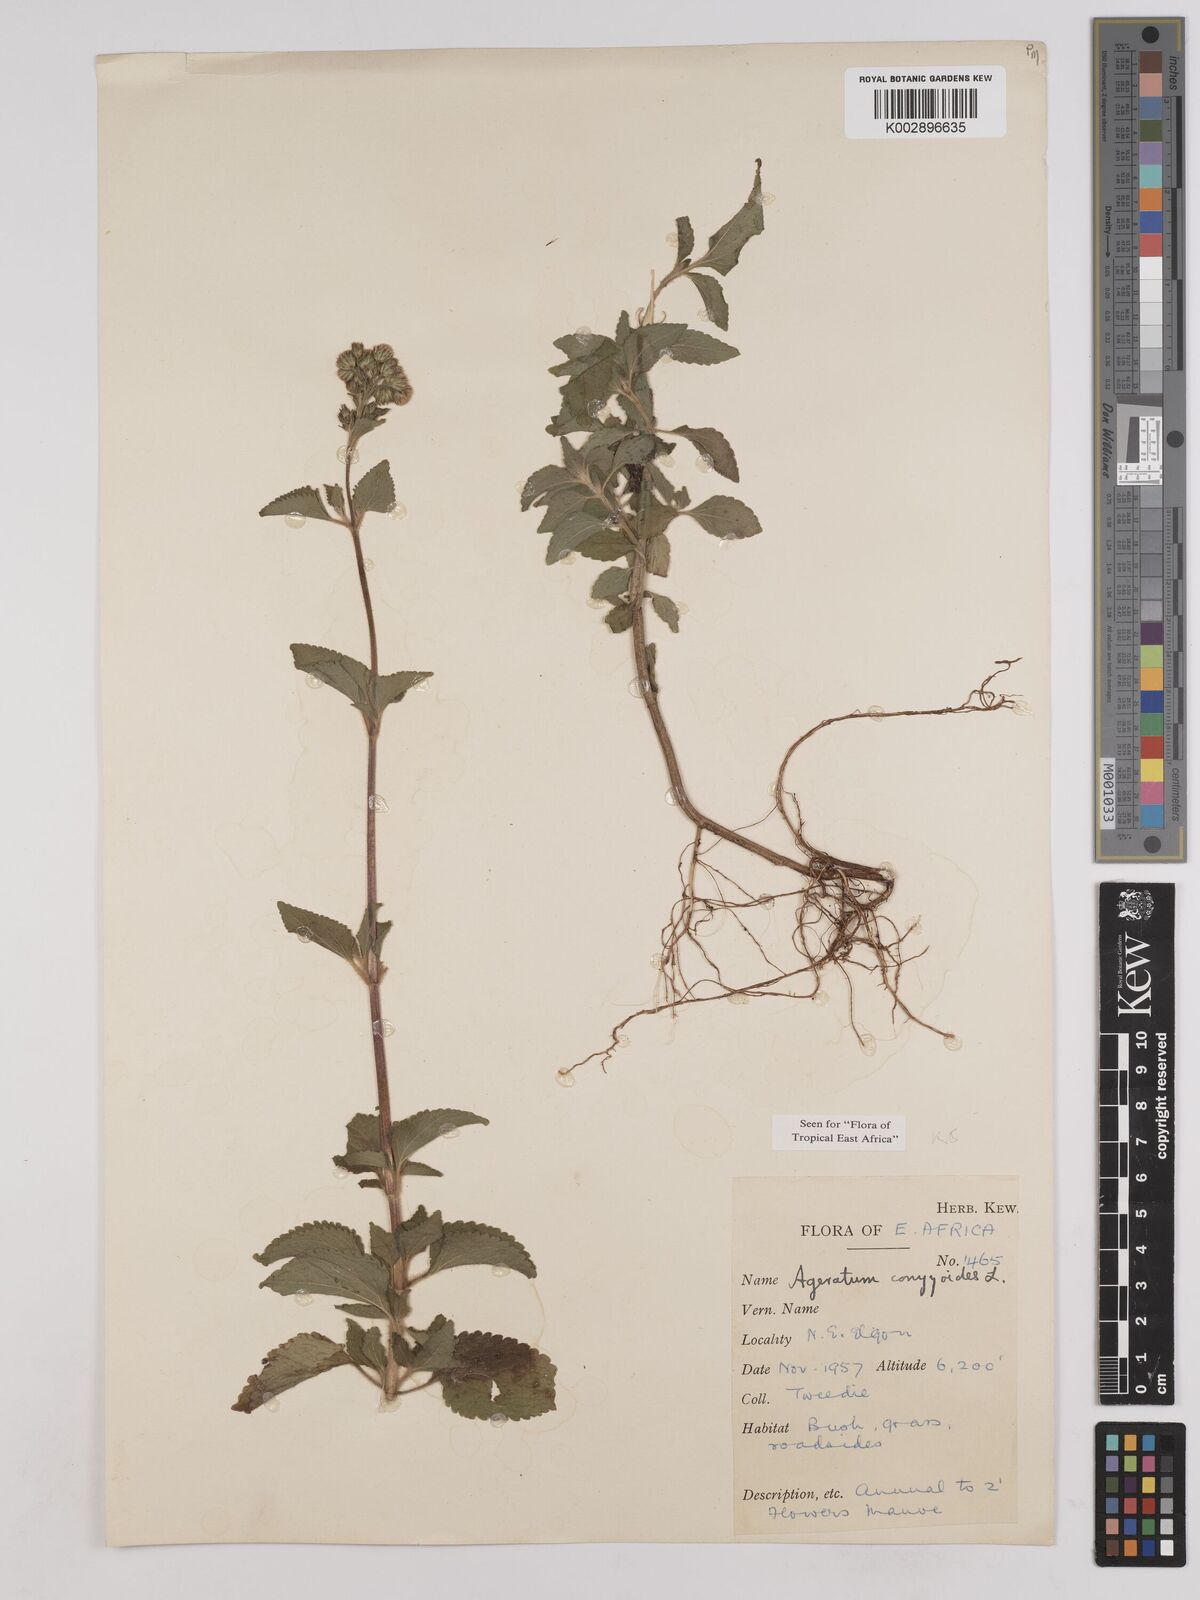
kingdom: Plantae
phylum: Tracheophyta
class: Magnoliopsida
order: Asterales
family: Asteraceae
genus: Ageratum
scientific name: Ageratum conyzoides
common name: Tropical whiteweed
